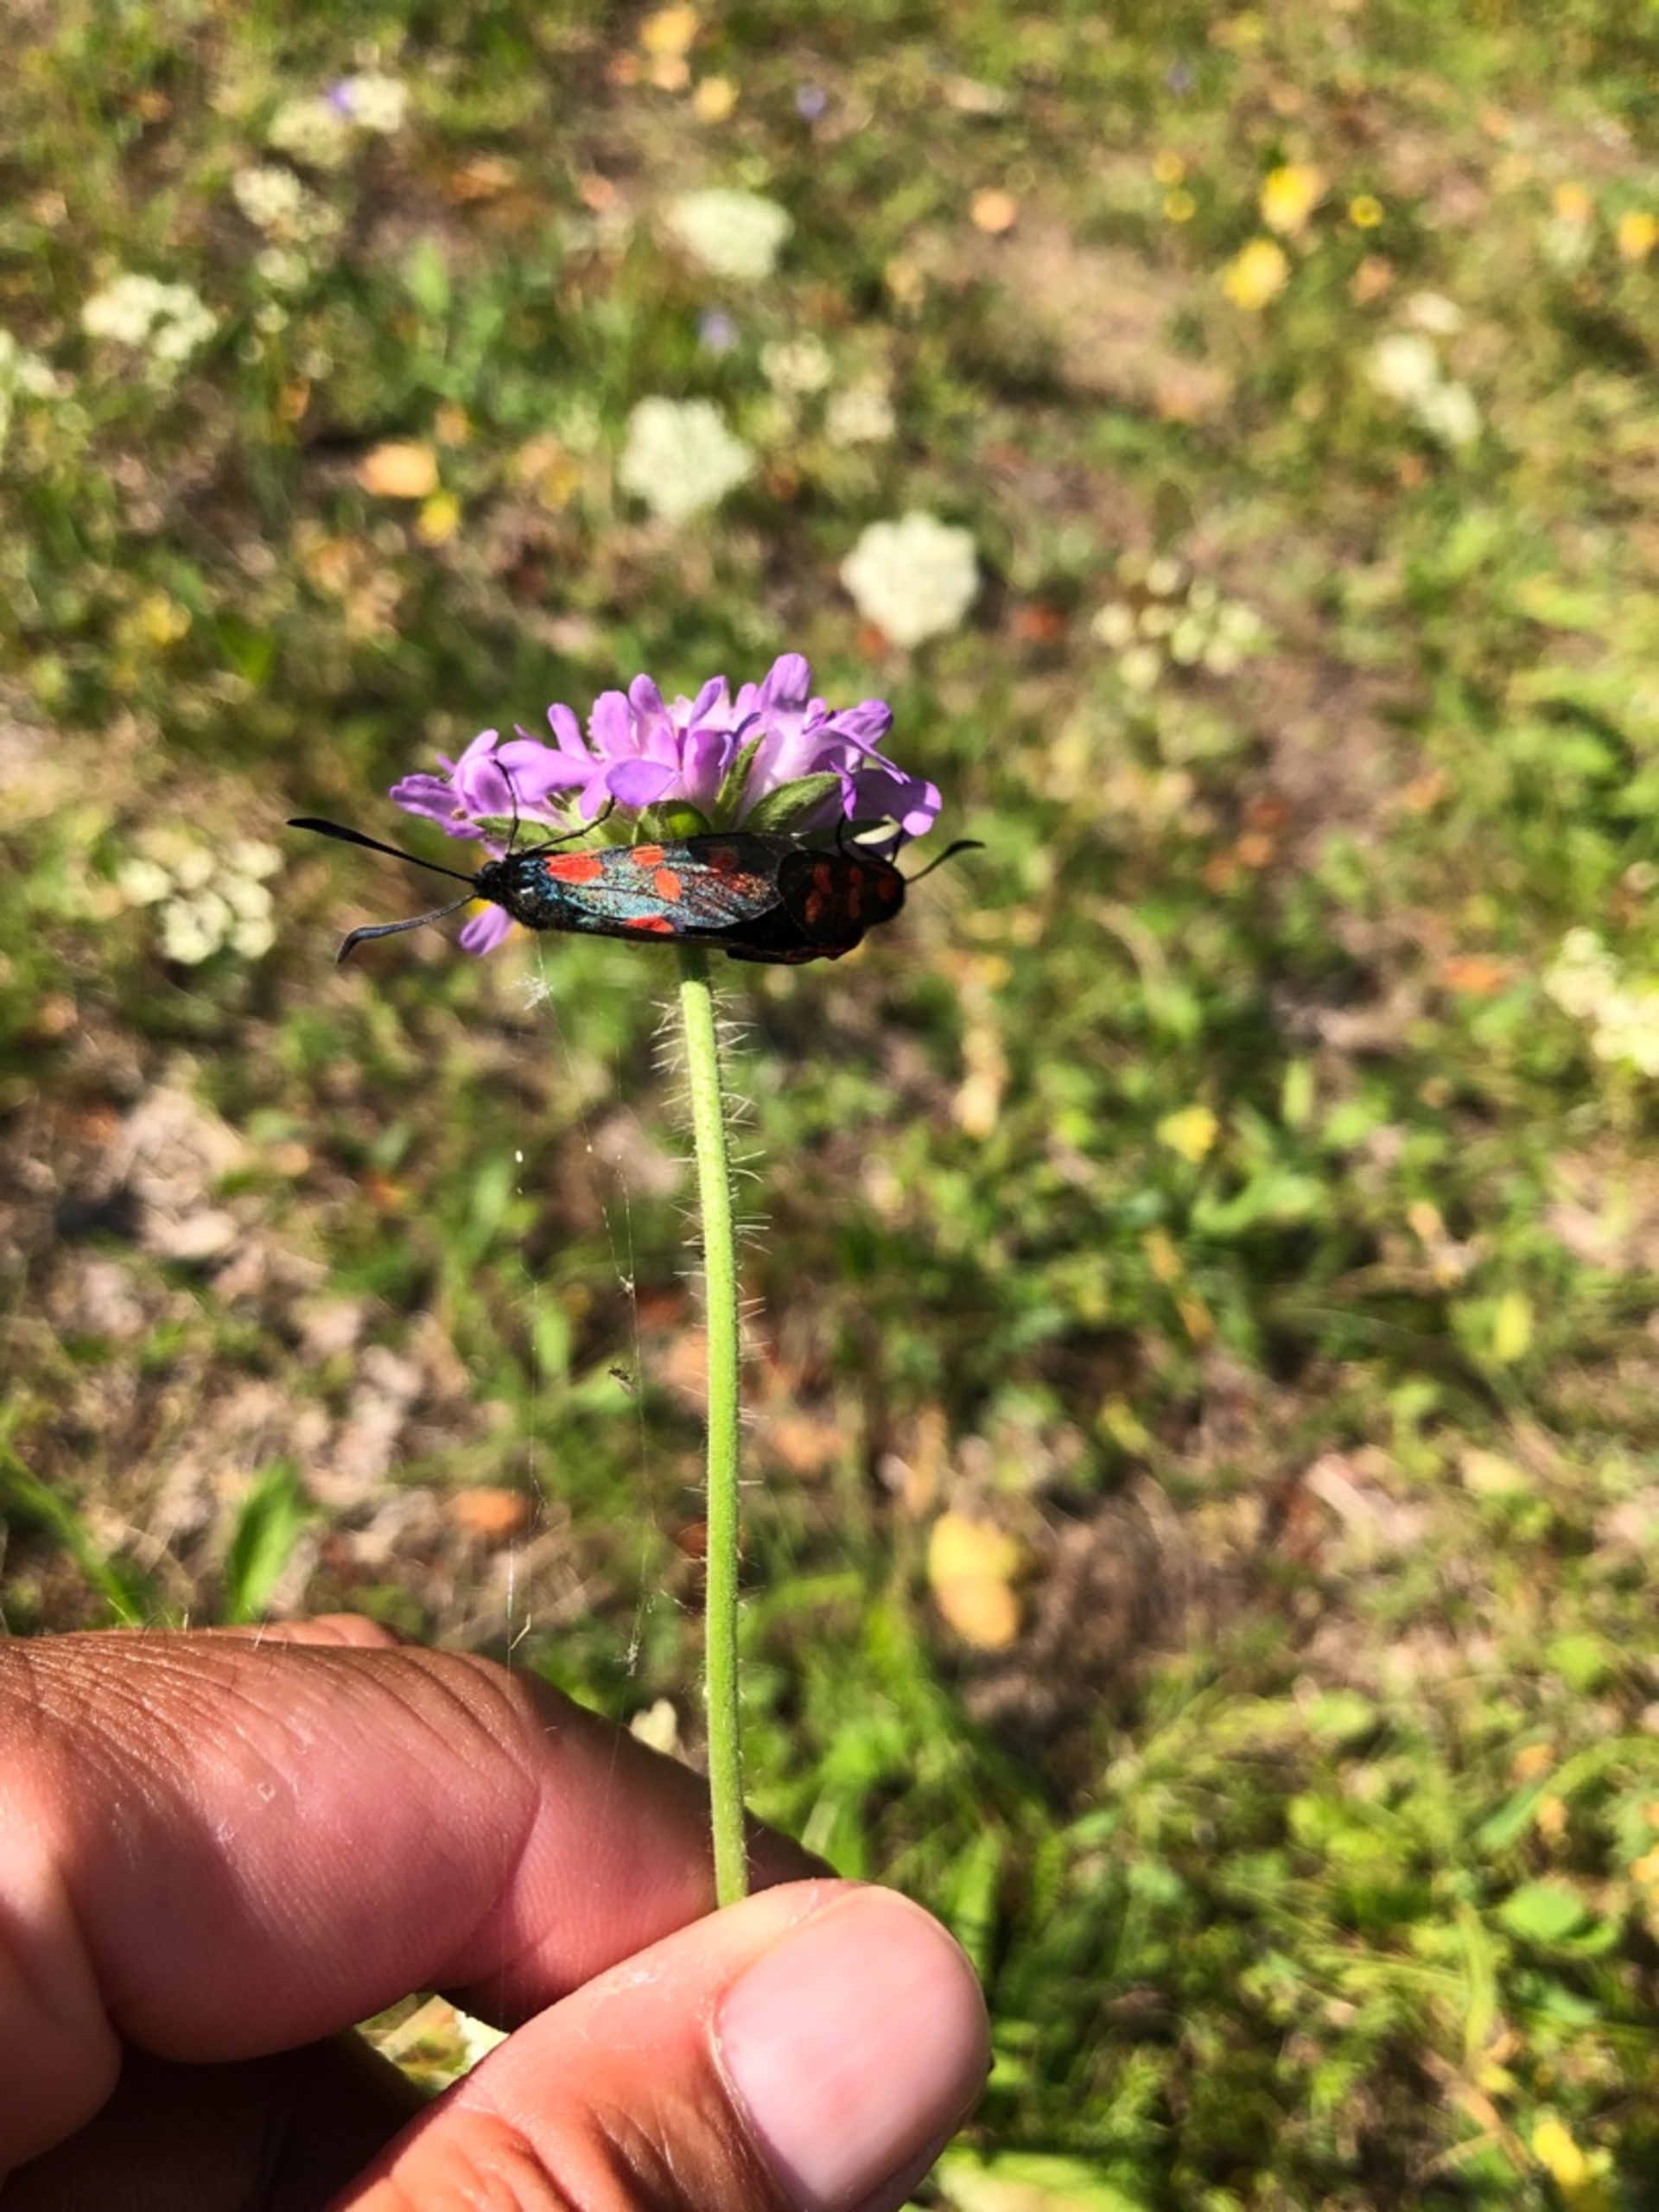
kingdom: Animalia
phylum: Arthropoda
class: Insecta
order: Lepidoptera
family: Zygaenidae
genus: Zygaena
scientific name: Zygaena filipendulae
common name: Seksplettet køllesværmer
